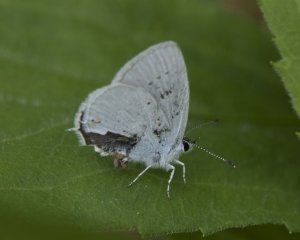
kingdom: Animalia
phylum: Arthropoda
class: Insecta
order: Lepidoptera
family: Lycaenidae
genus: Elkalyce
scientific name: Elkalyce amyntula
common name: Western Tailed-Blue
